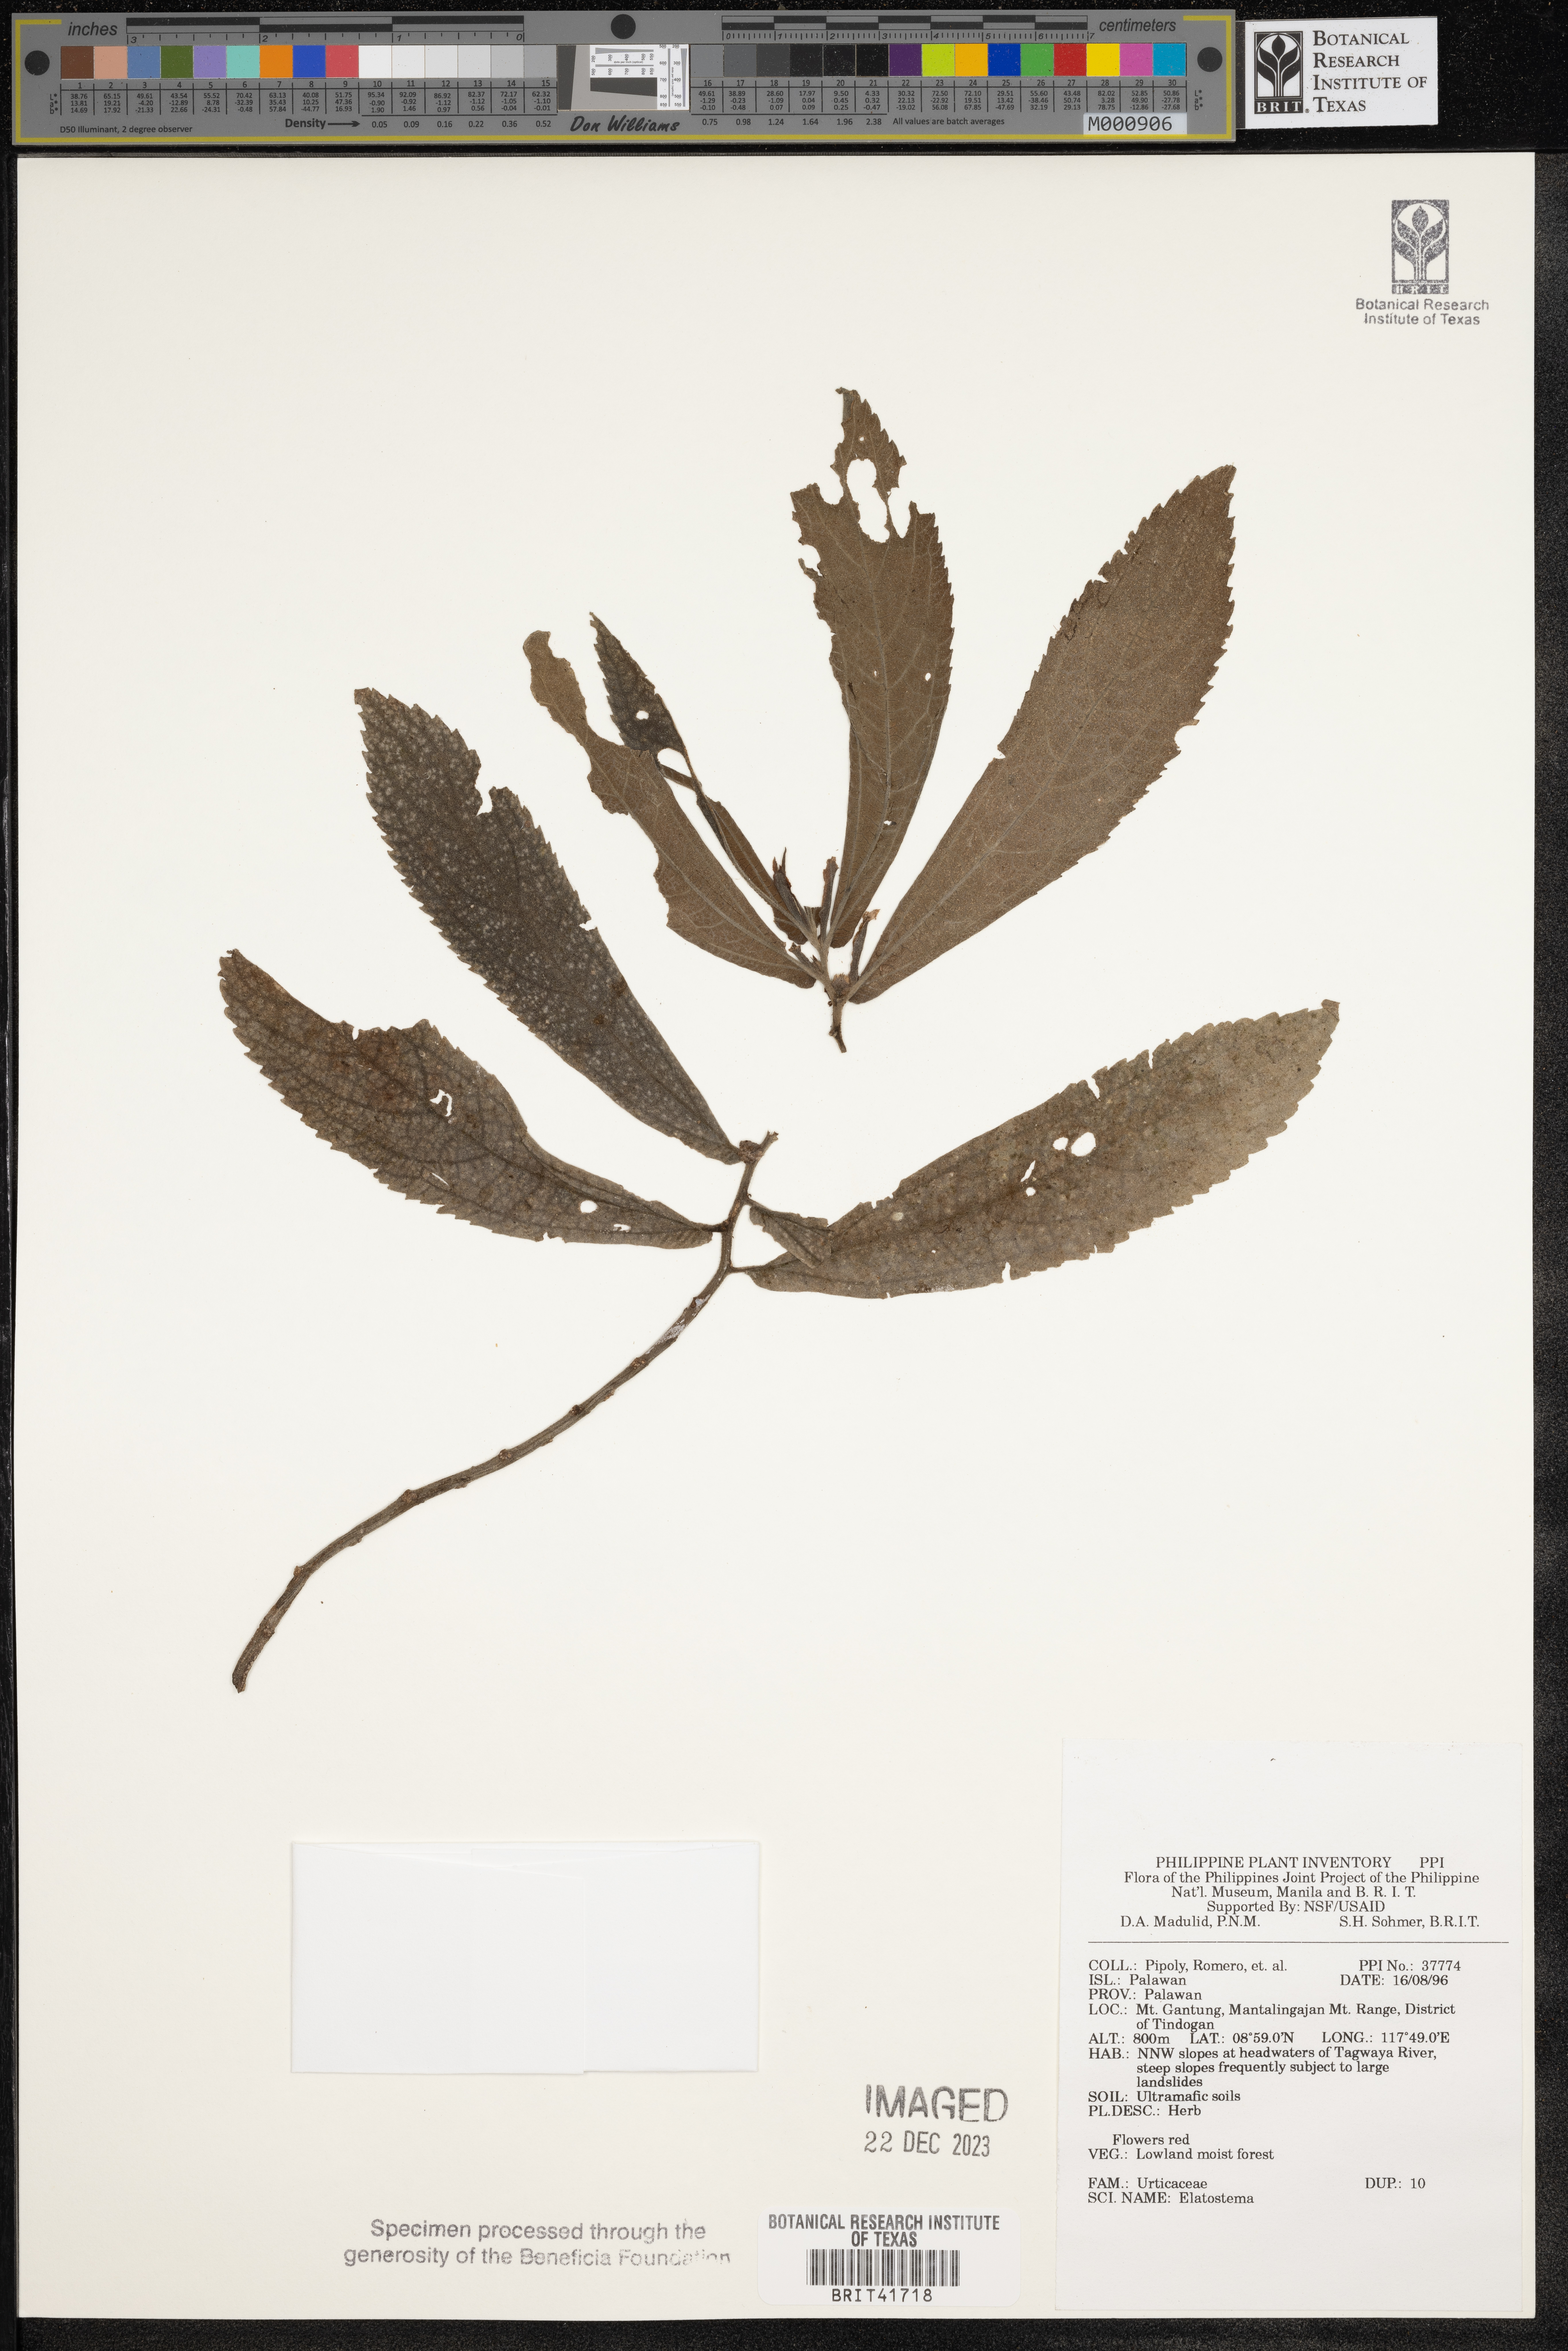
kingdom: Plantae
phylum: Tracheophyta
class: Magnoliopsida
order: Rosales
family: Urticaceae
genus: Elatostema
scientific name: Elatostema
